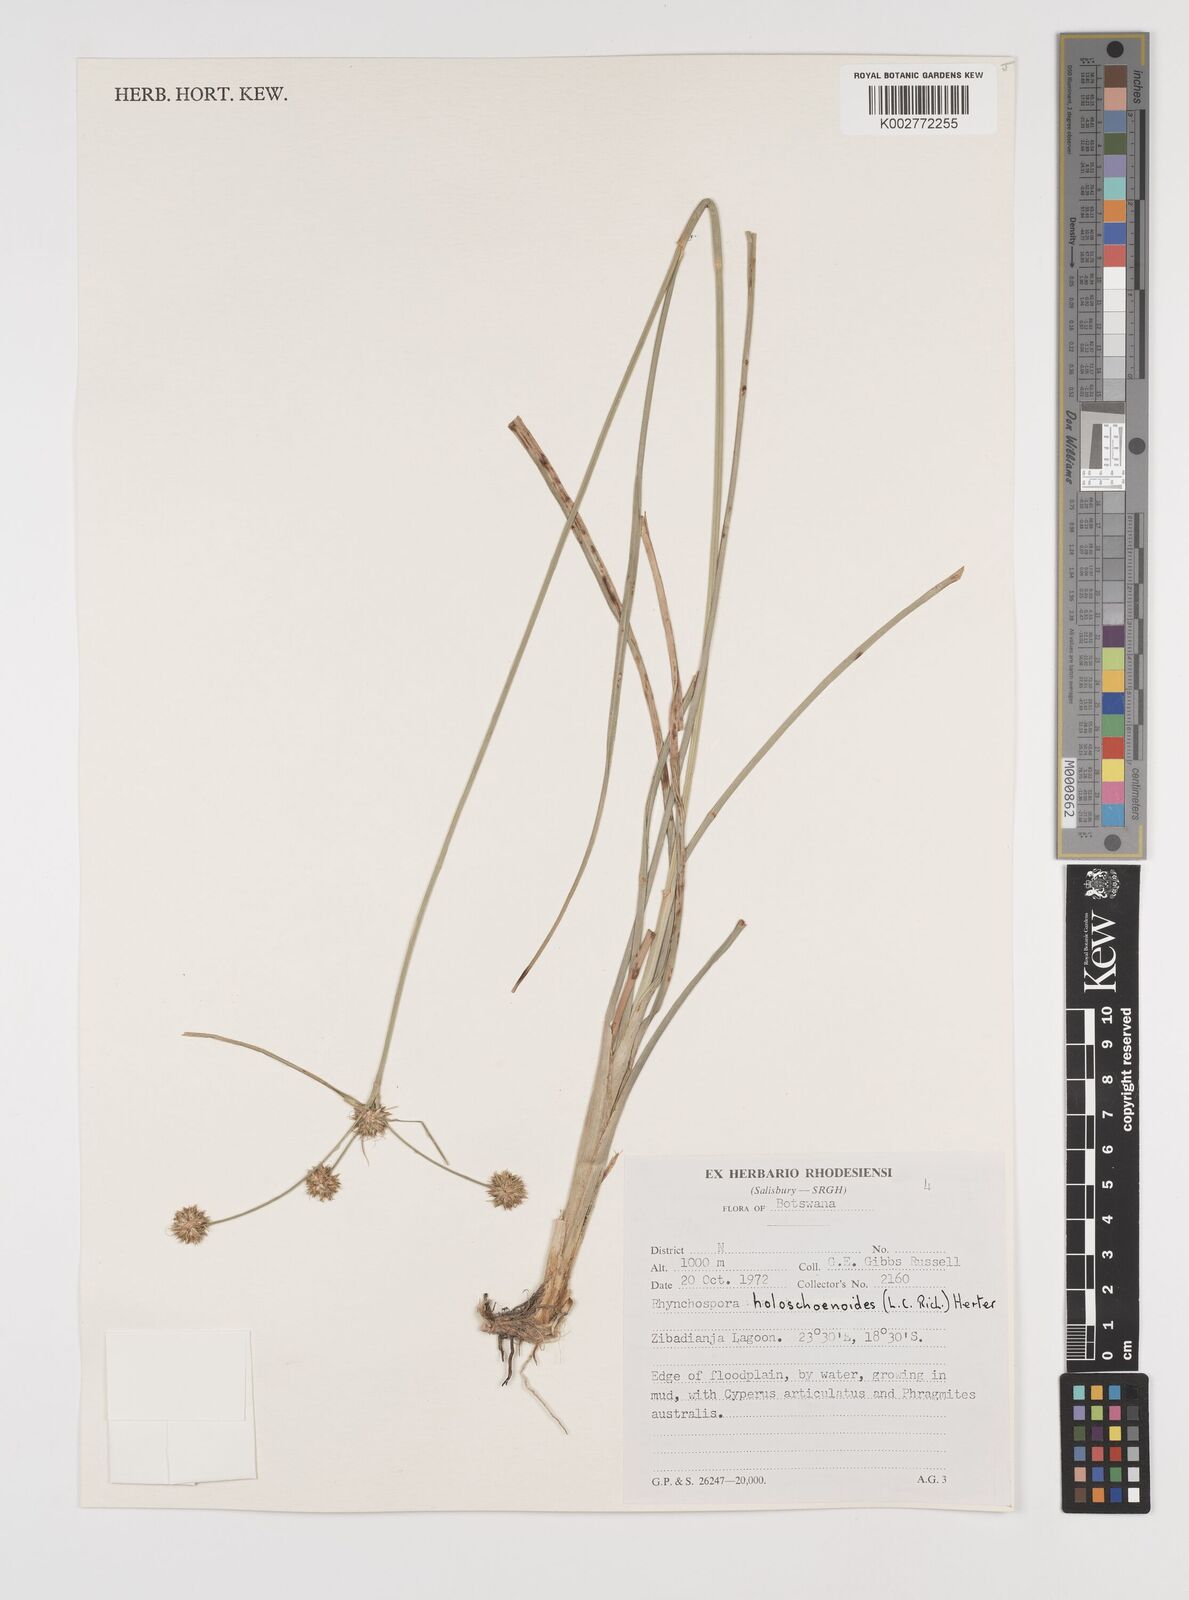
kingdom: Plantae
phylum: Tracheophyta
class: Liliopsida
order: Poales
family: Cyperaceae
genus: Rhynchospora
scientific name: Rhynchospora holoschoenoides
